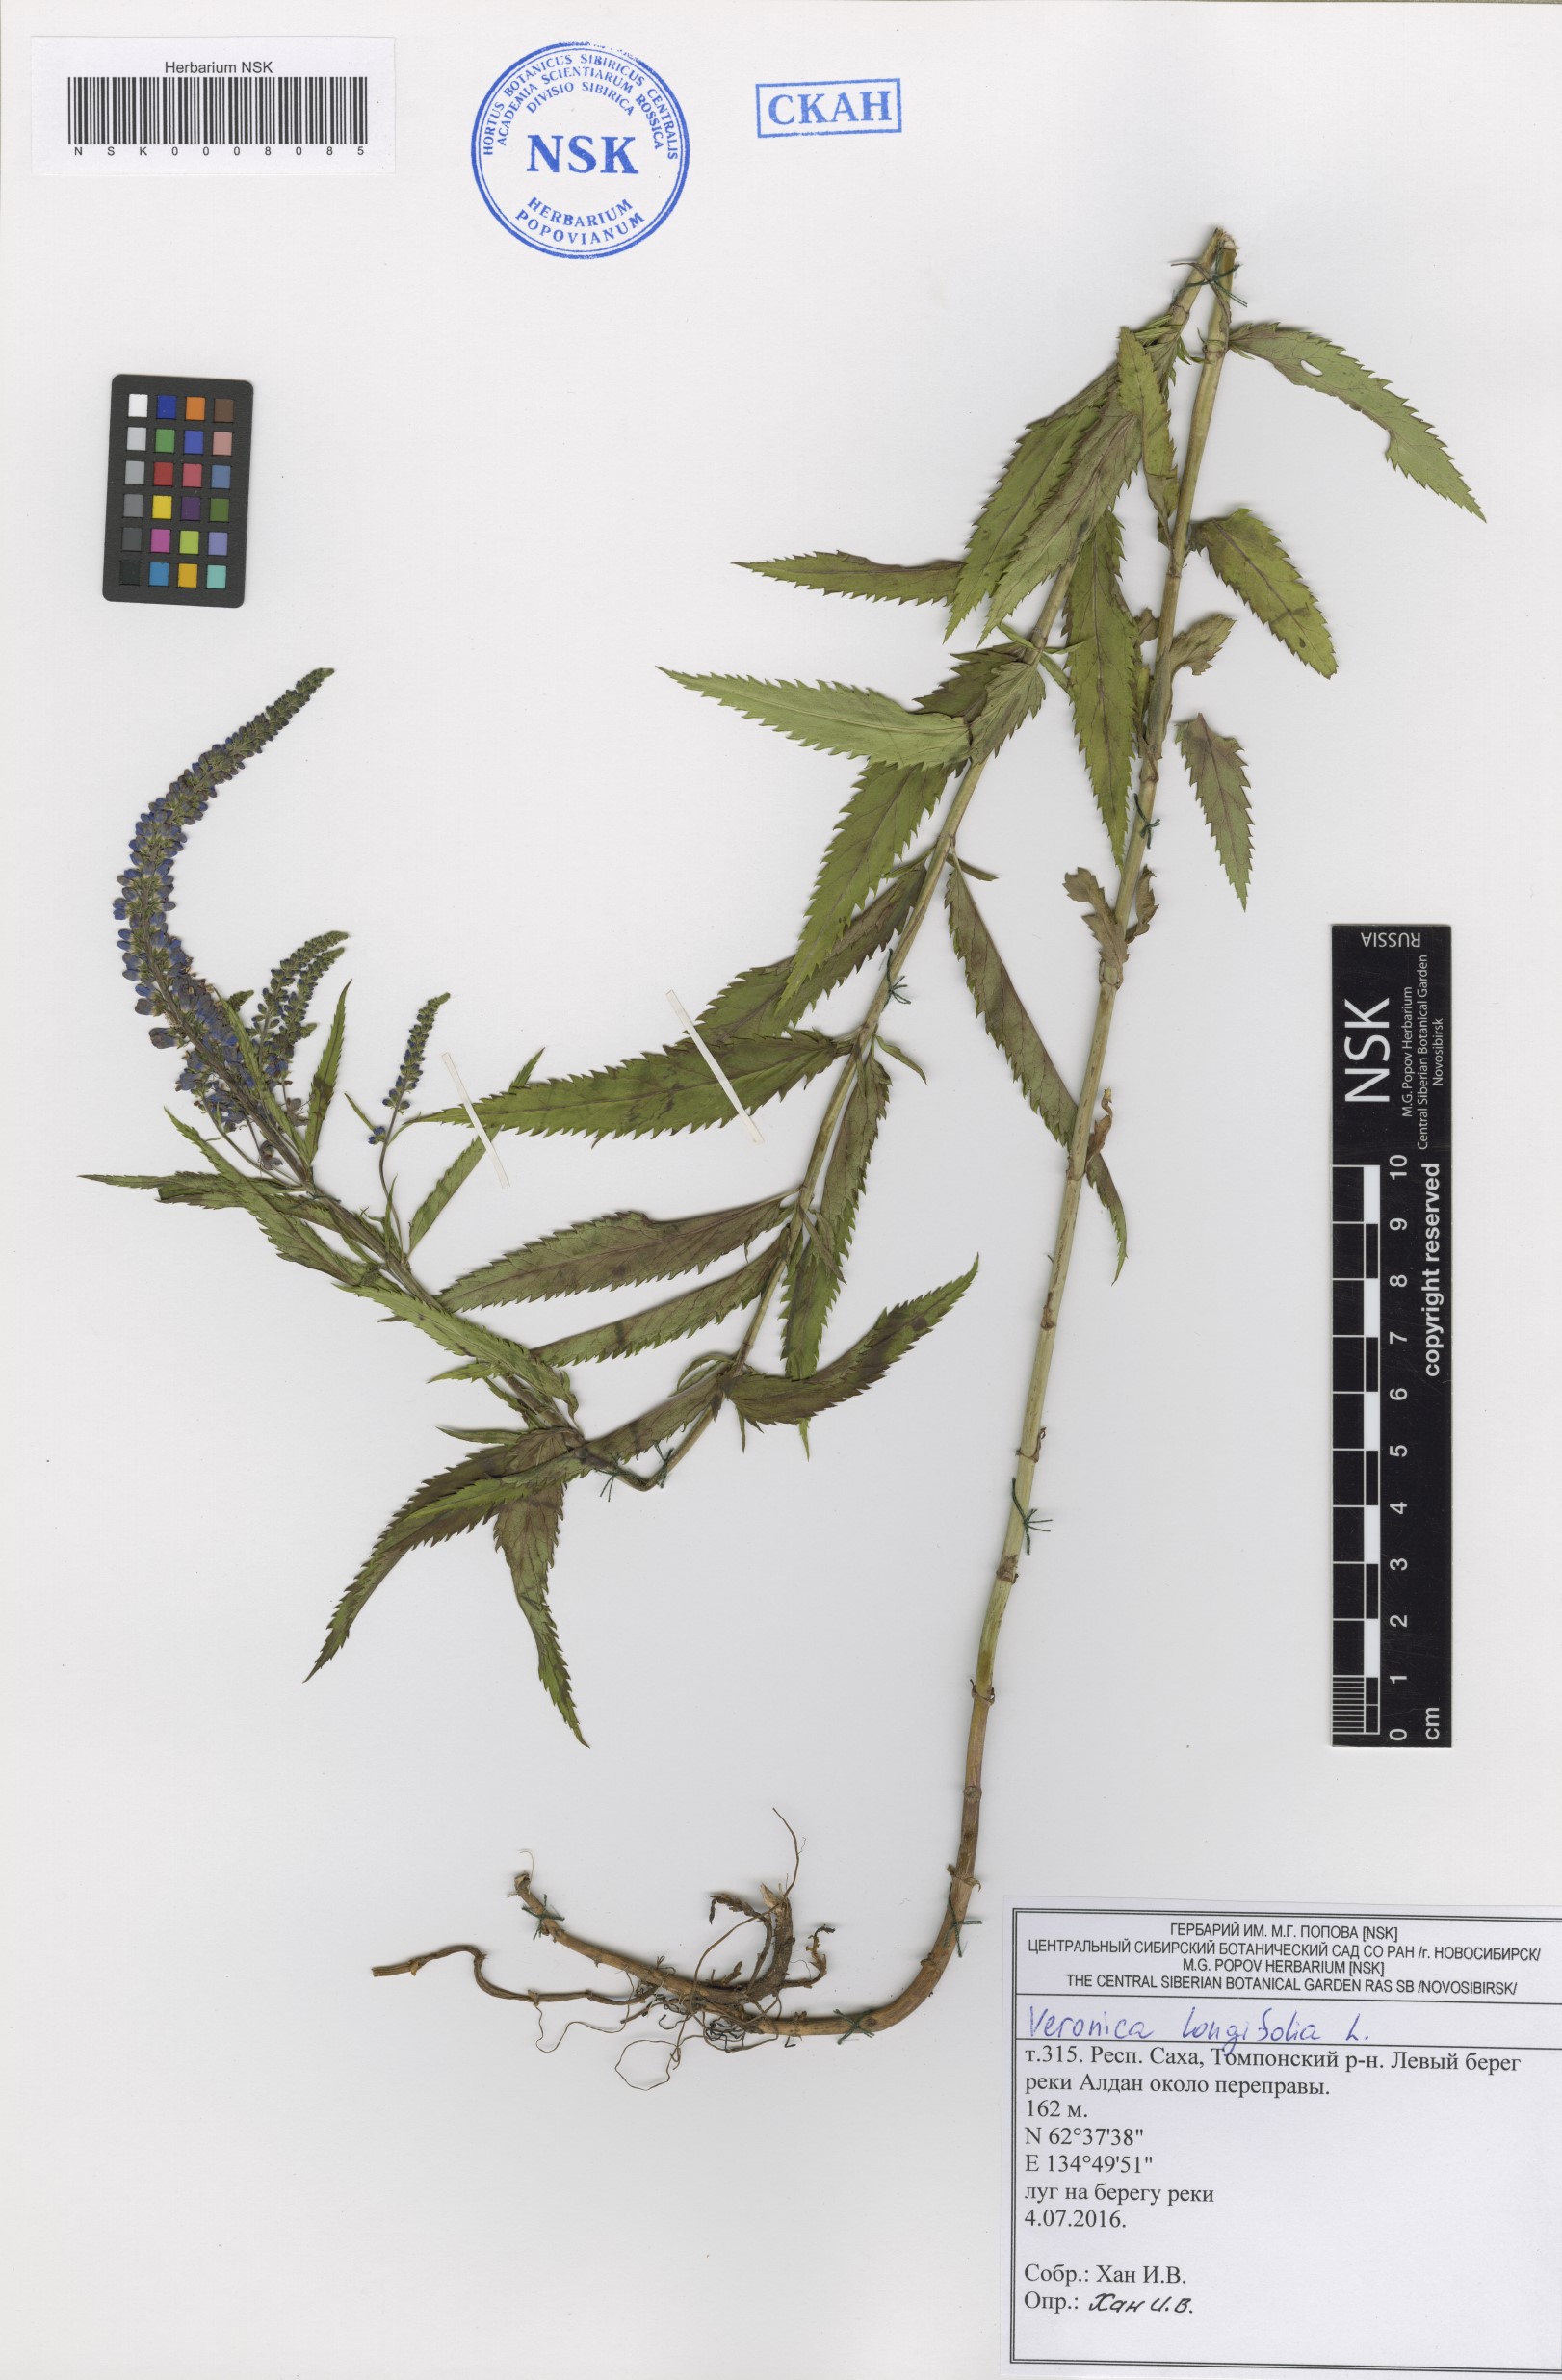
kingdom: Plantae
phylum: Tracheophyta
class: Magnoliopsida
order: Lamiales
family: Plantaginaceae
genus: Veronica
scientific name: Veronica longifolia
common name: Garden speedwell
